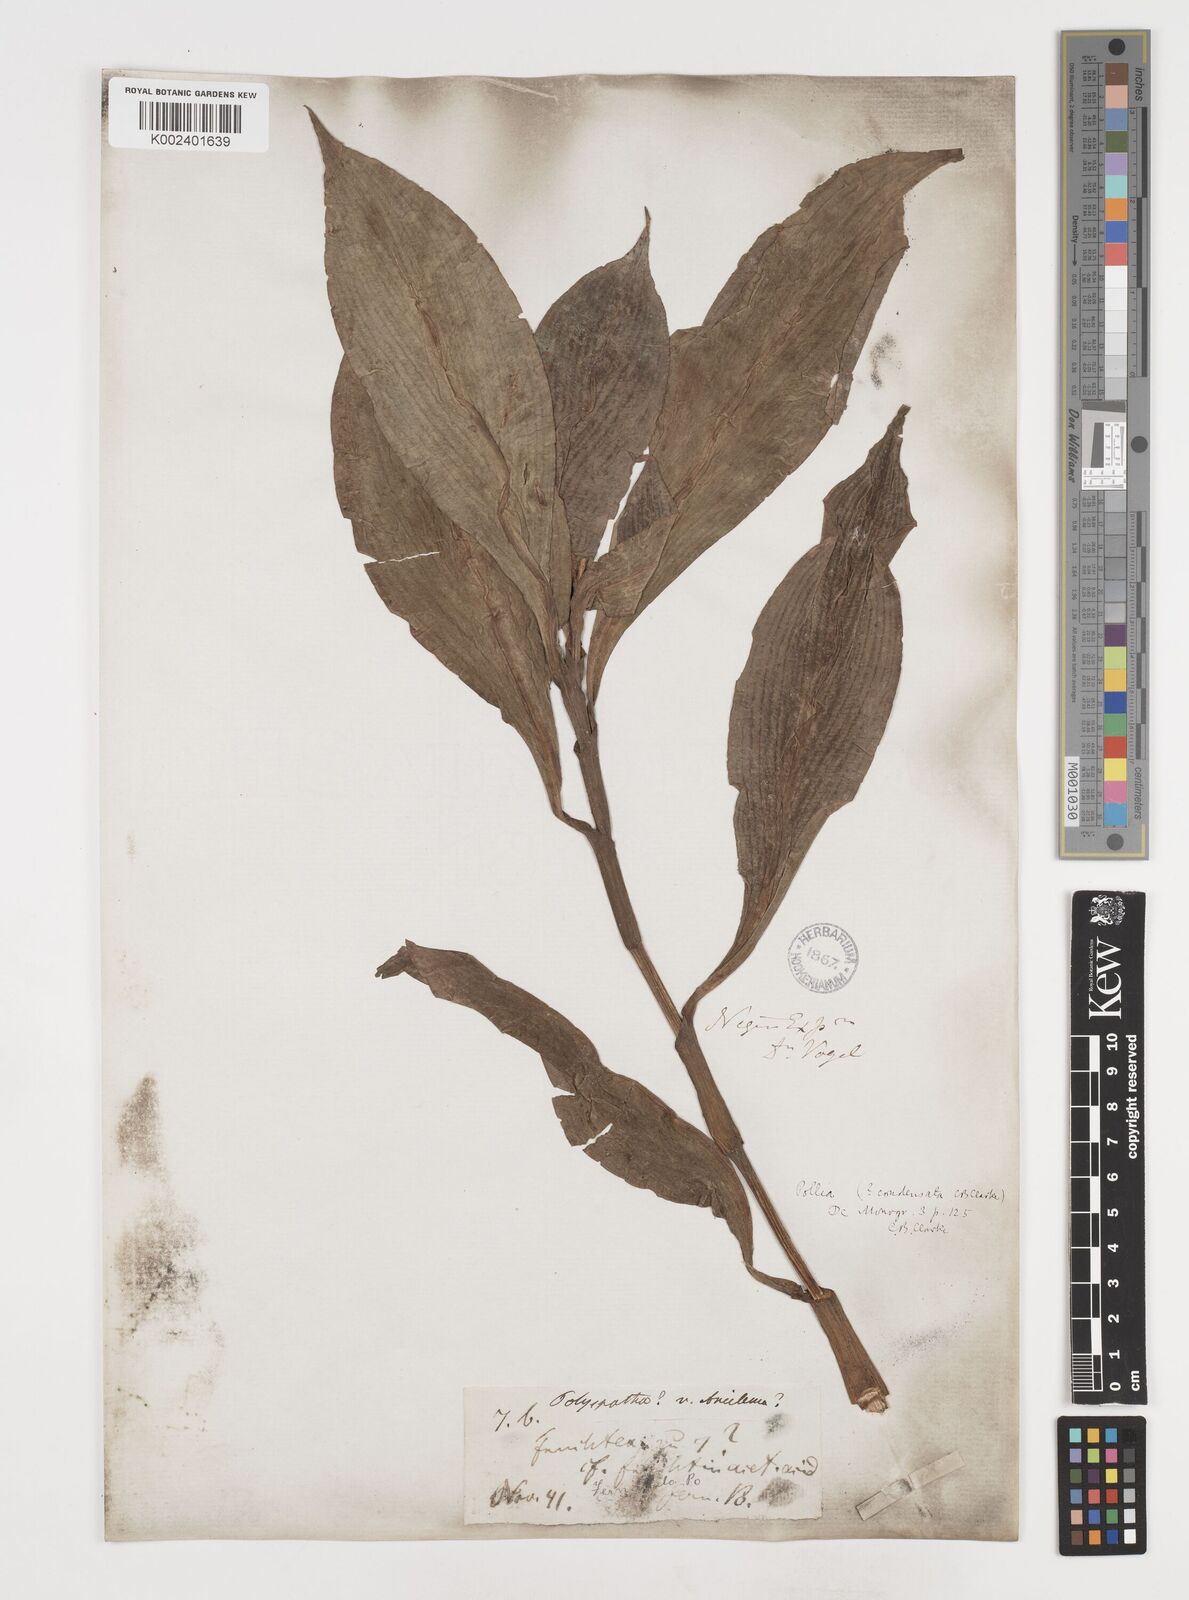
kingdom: Plantae
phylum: Tracheophyta
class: Liliopsida
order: Commelinales
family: Commelinaceae
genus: Pollia
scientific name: Pollia condensata
